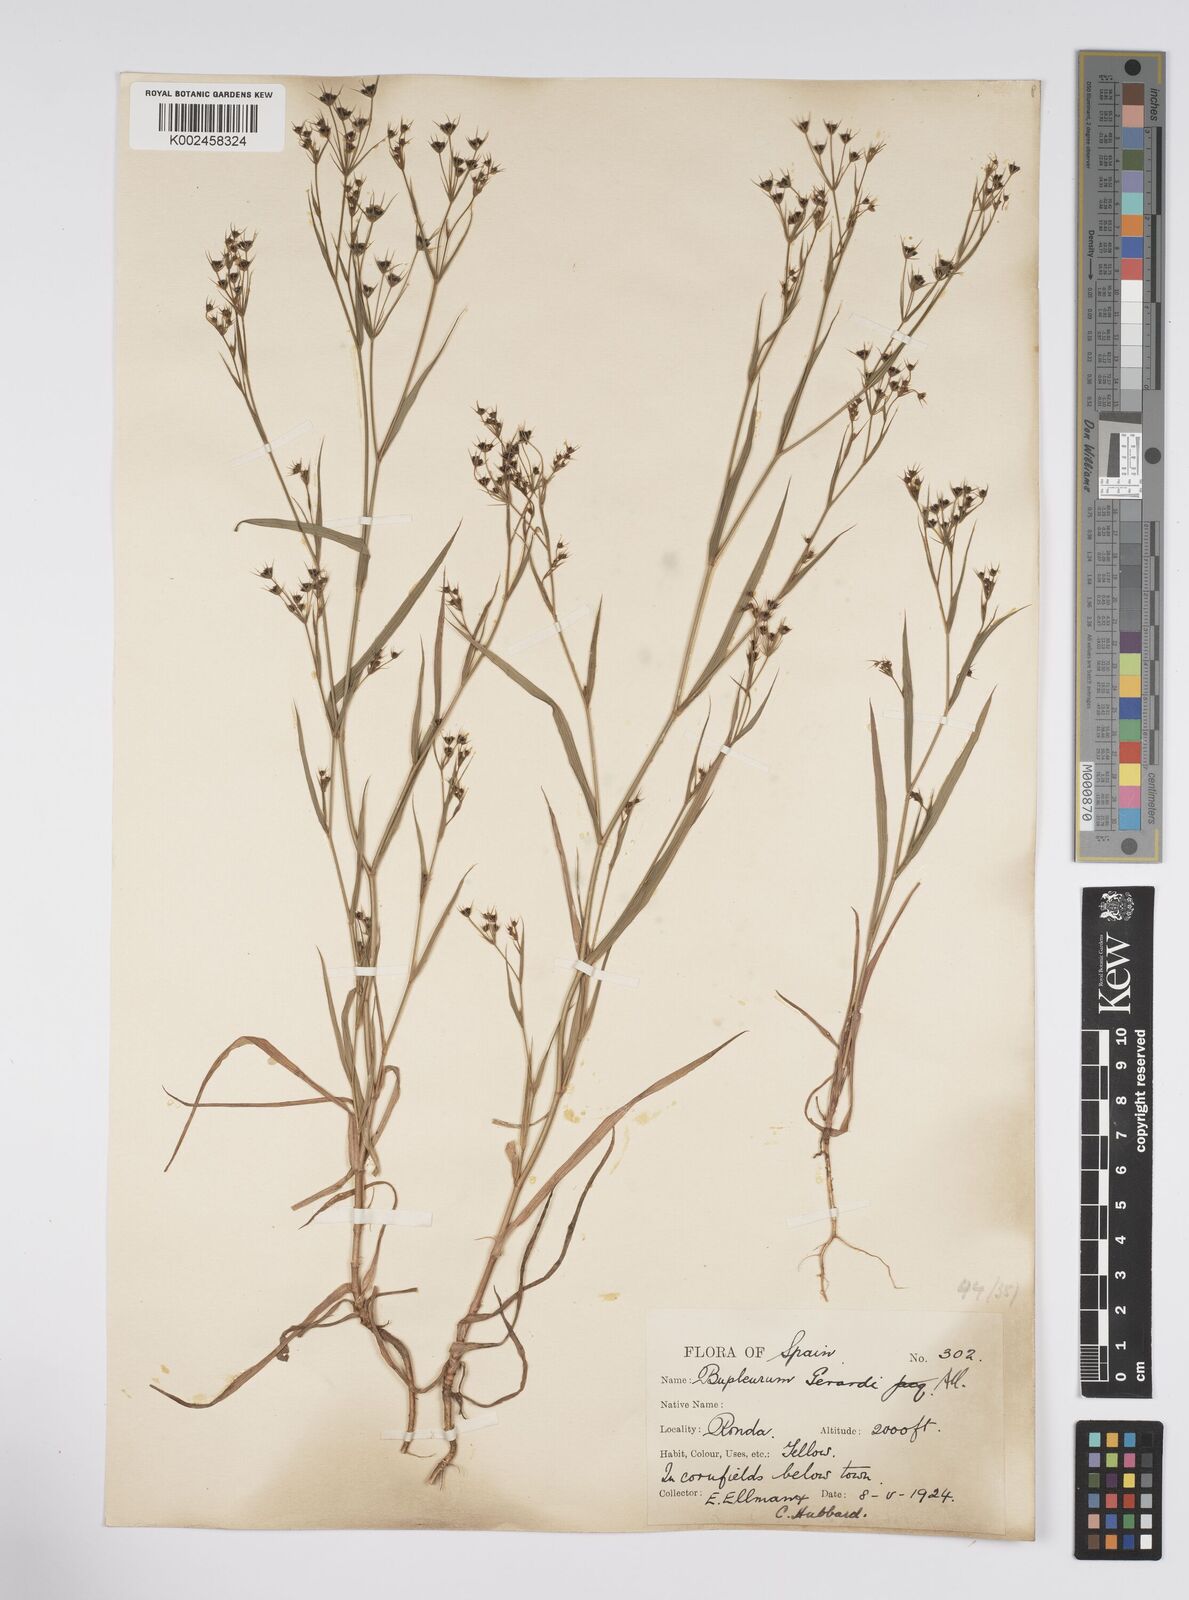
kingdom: Plantae
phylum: Tracheophyta
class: Magnoliopsida
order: Apiales
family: Apiaceae
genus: Bupleurum
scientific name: Bupleurum gerardi
